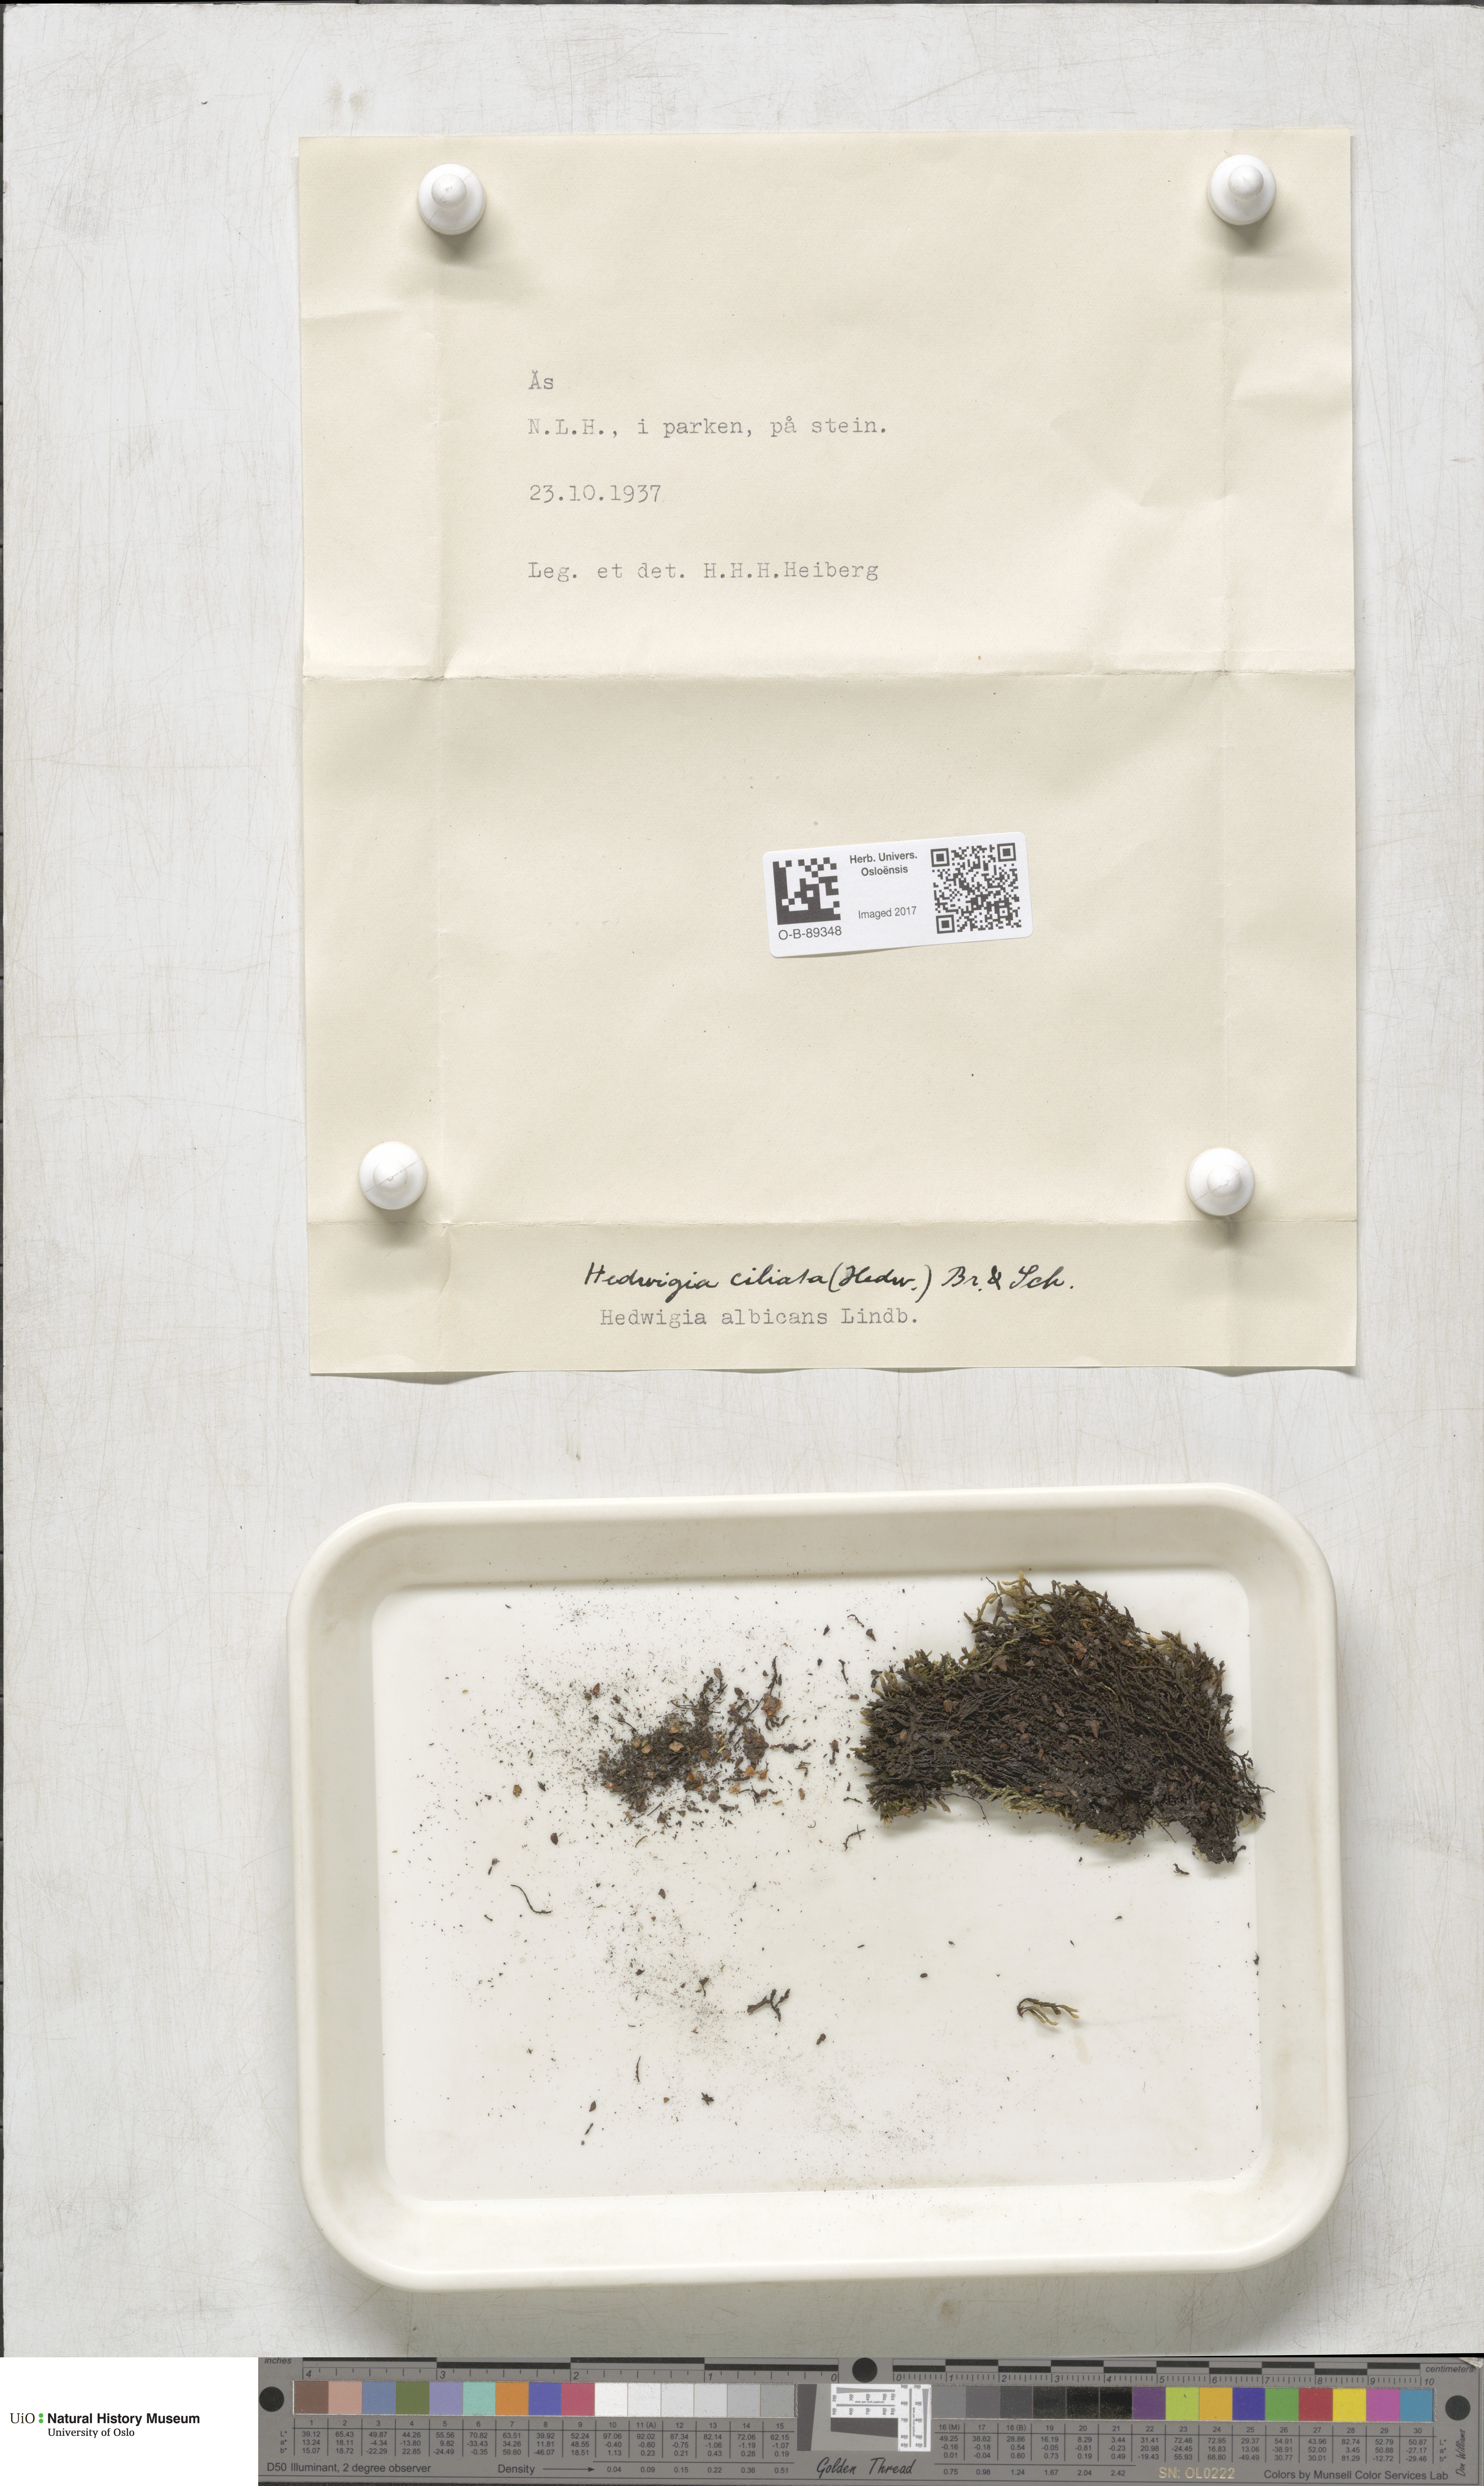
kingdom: Plantae
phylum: Bryophyta
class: Bryopsida
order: Hedwigiales
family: Hedwigiaceae
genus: Hedwigia
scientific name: Hedwigia ciliata
